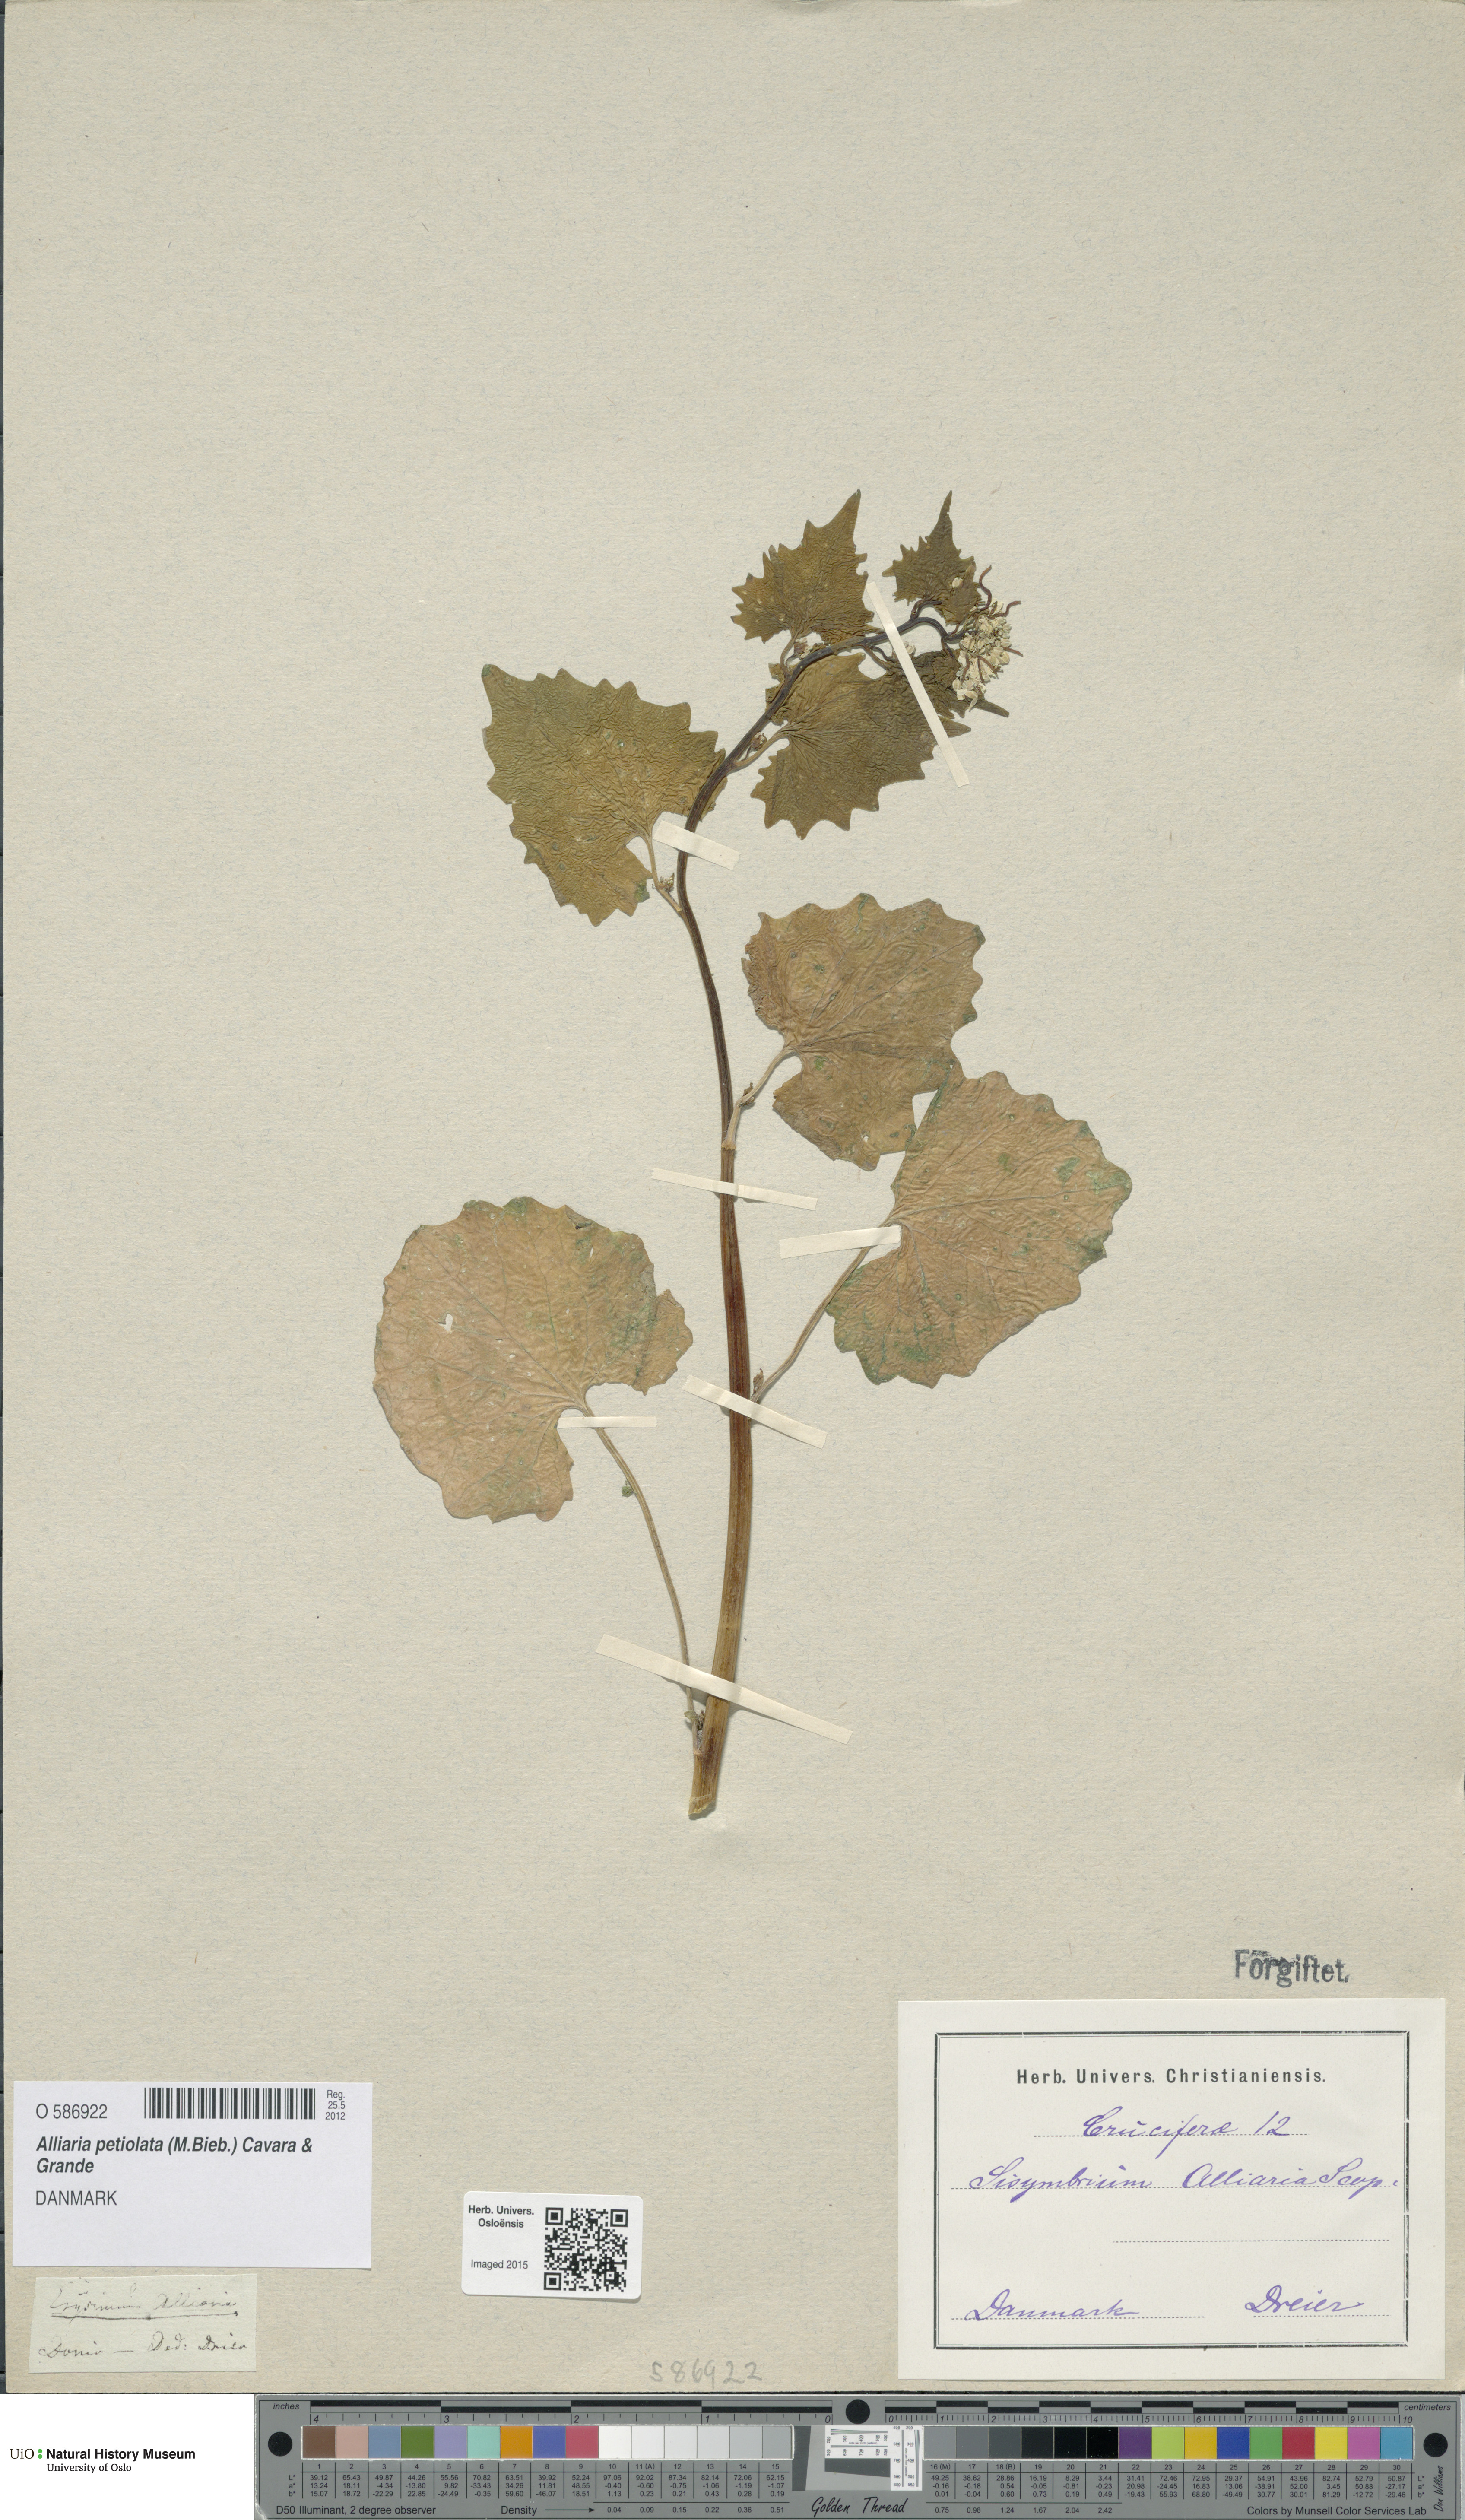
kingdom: Plantae
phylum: Tracheophyta
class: Magnoliopsida
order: Brassicales
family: Brassicaceae
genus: Alliaria
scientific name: Alliaria petiolata
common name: Garlic mustard
